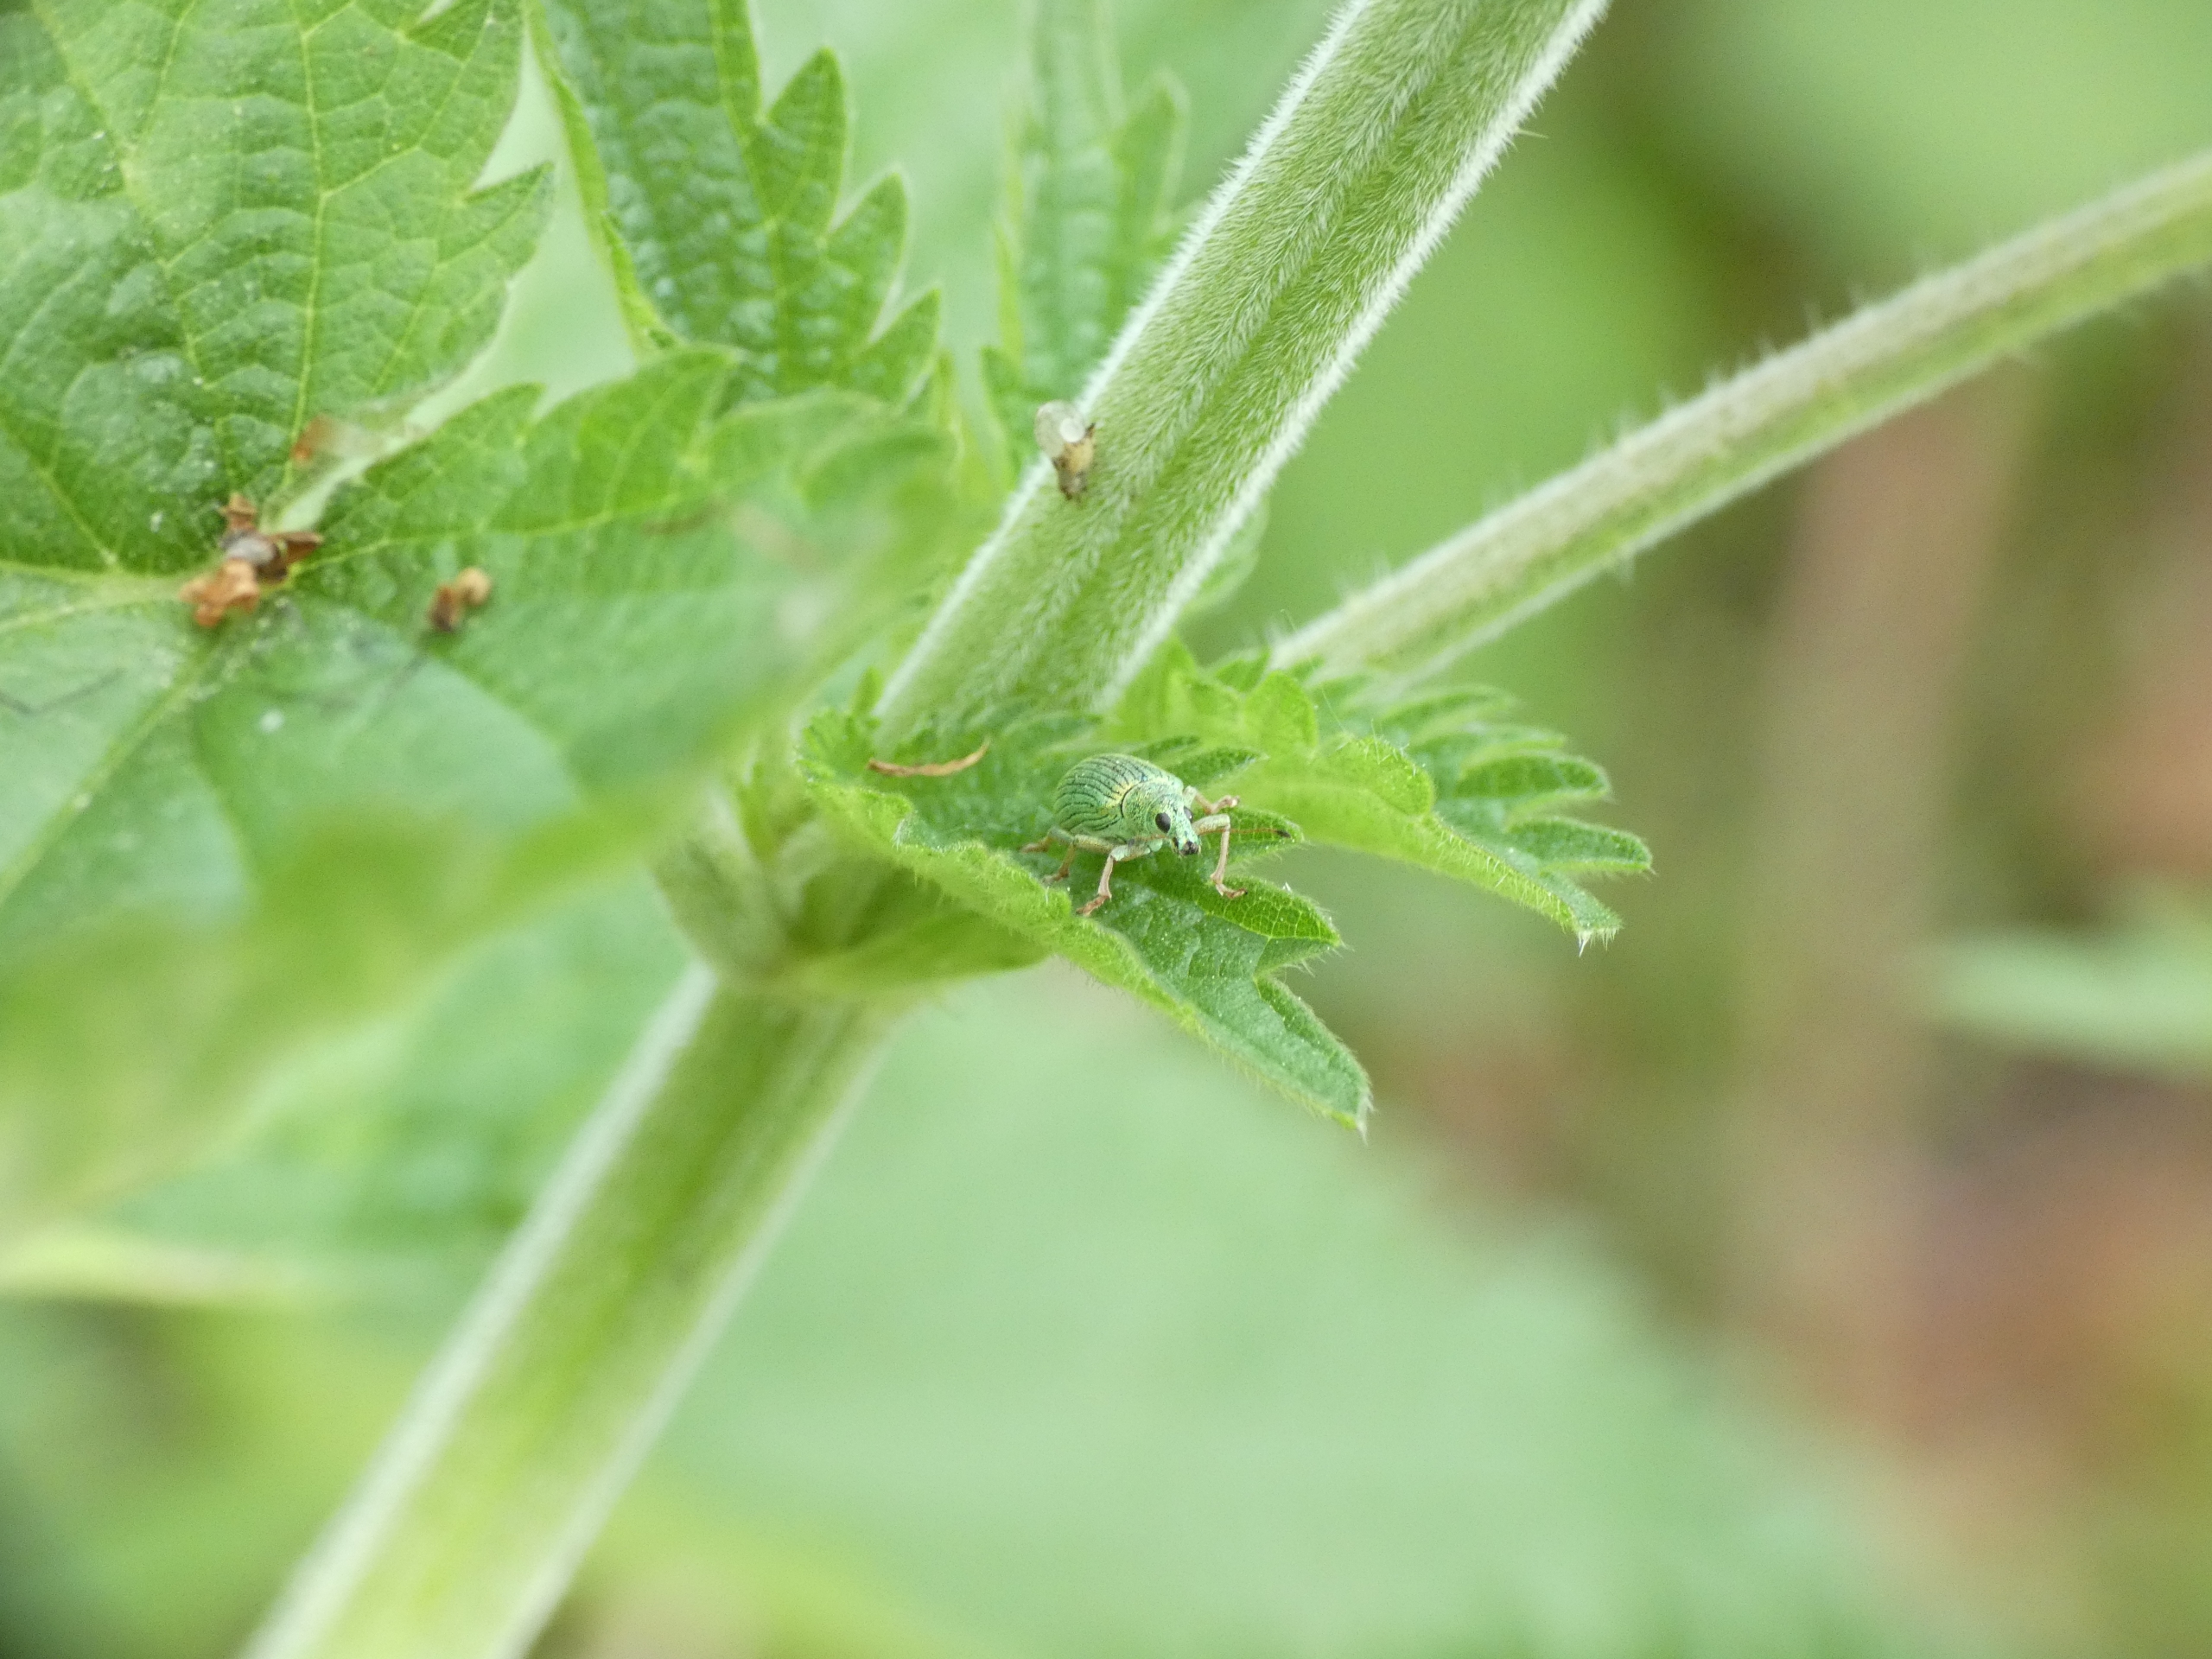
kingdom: Animalia
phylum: Arthropoda
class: Insecta
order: Coleoptera
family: Curculionidae
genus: Polydrusus
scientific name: Polydrusus formosus
